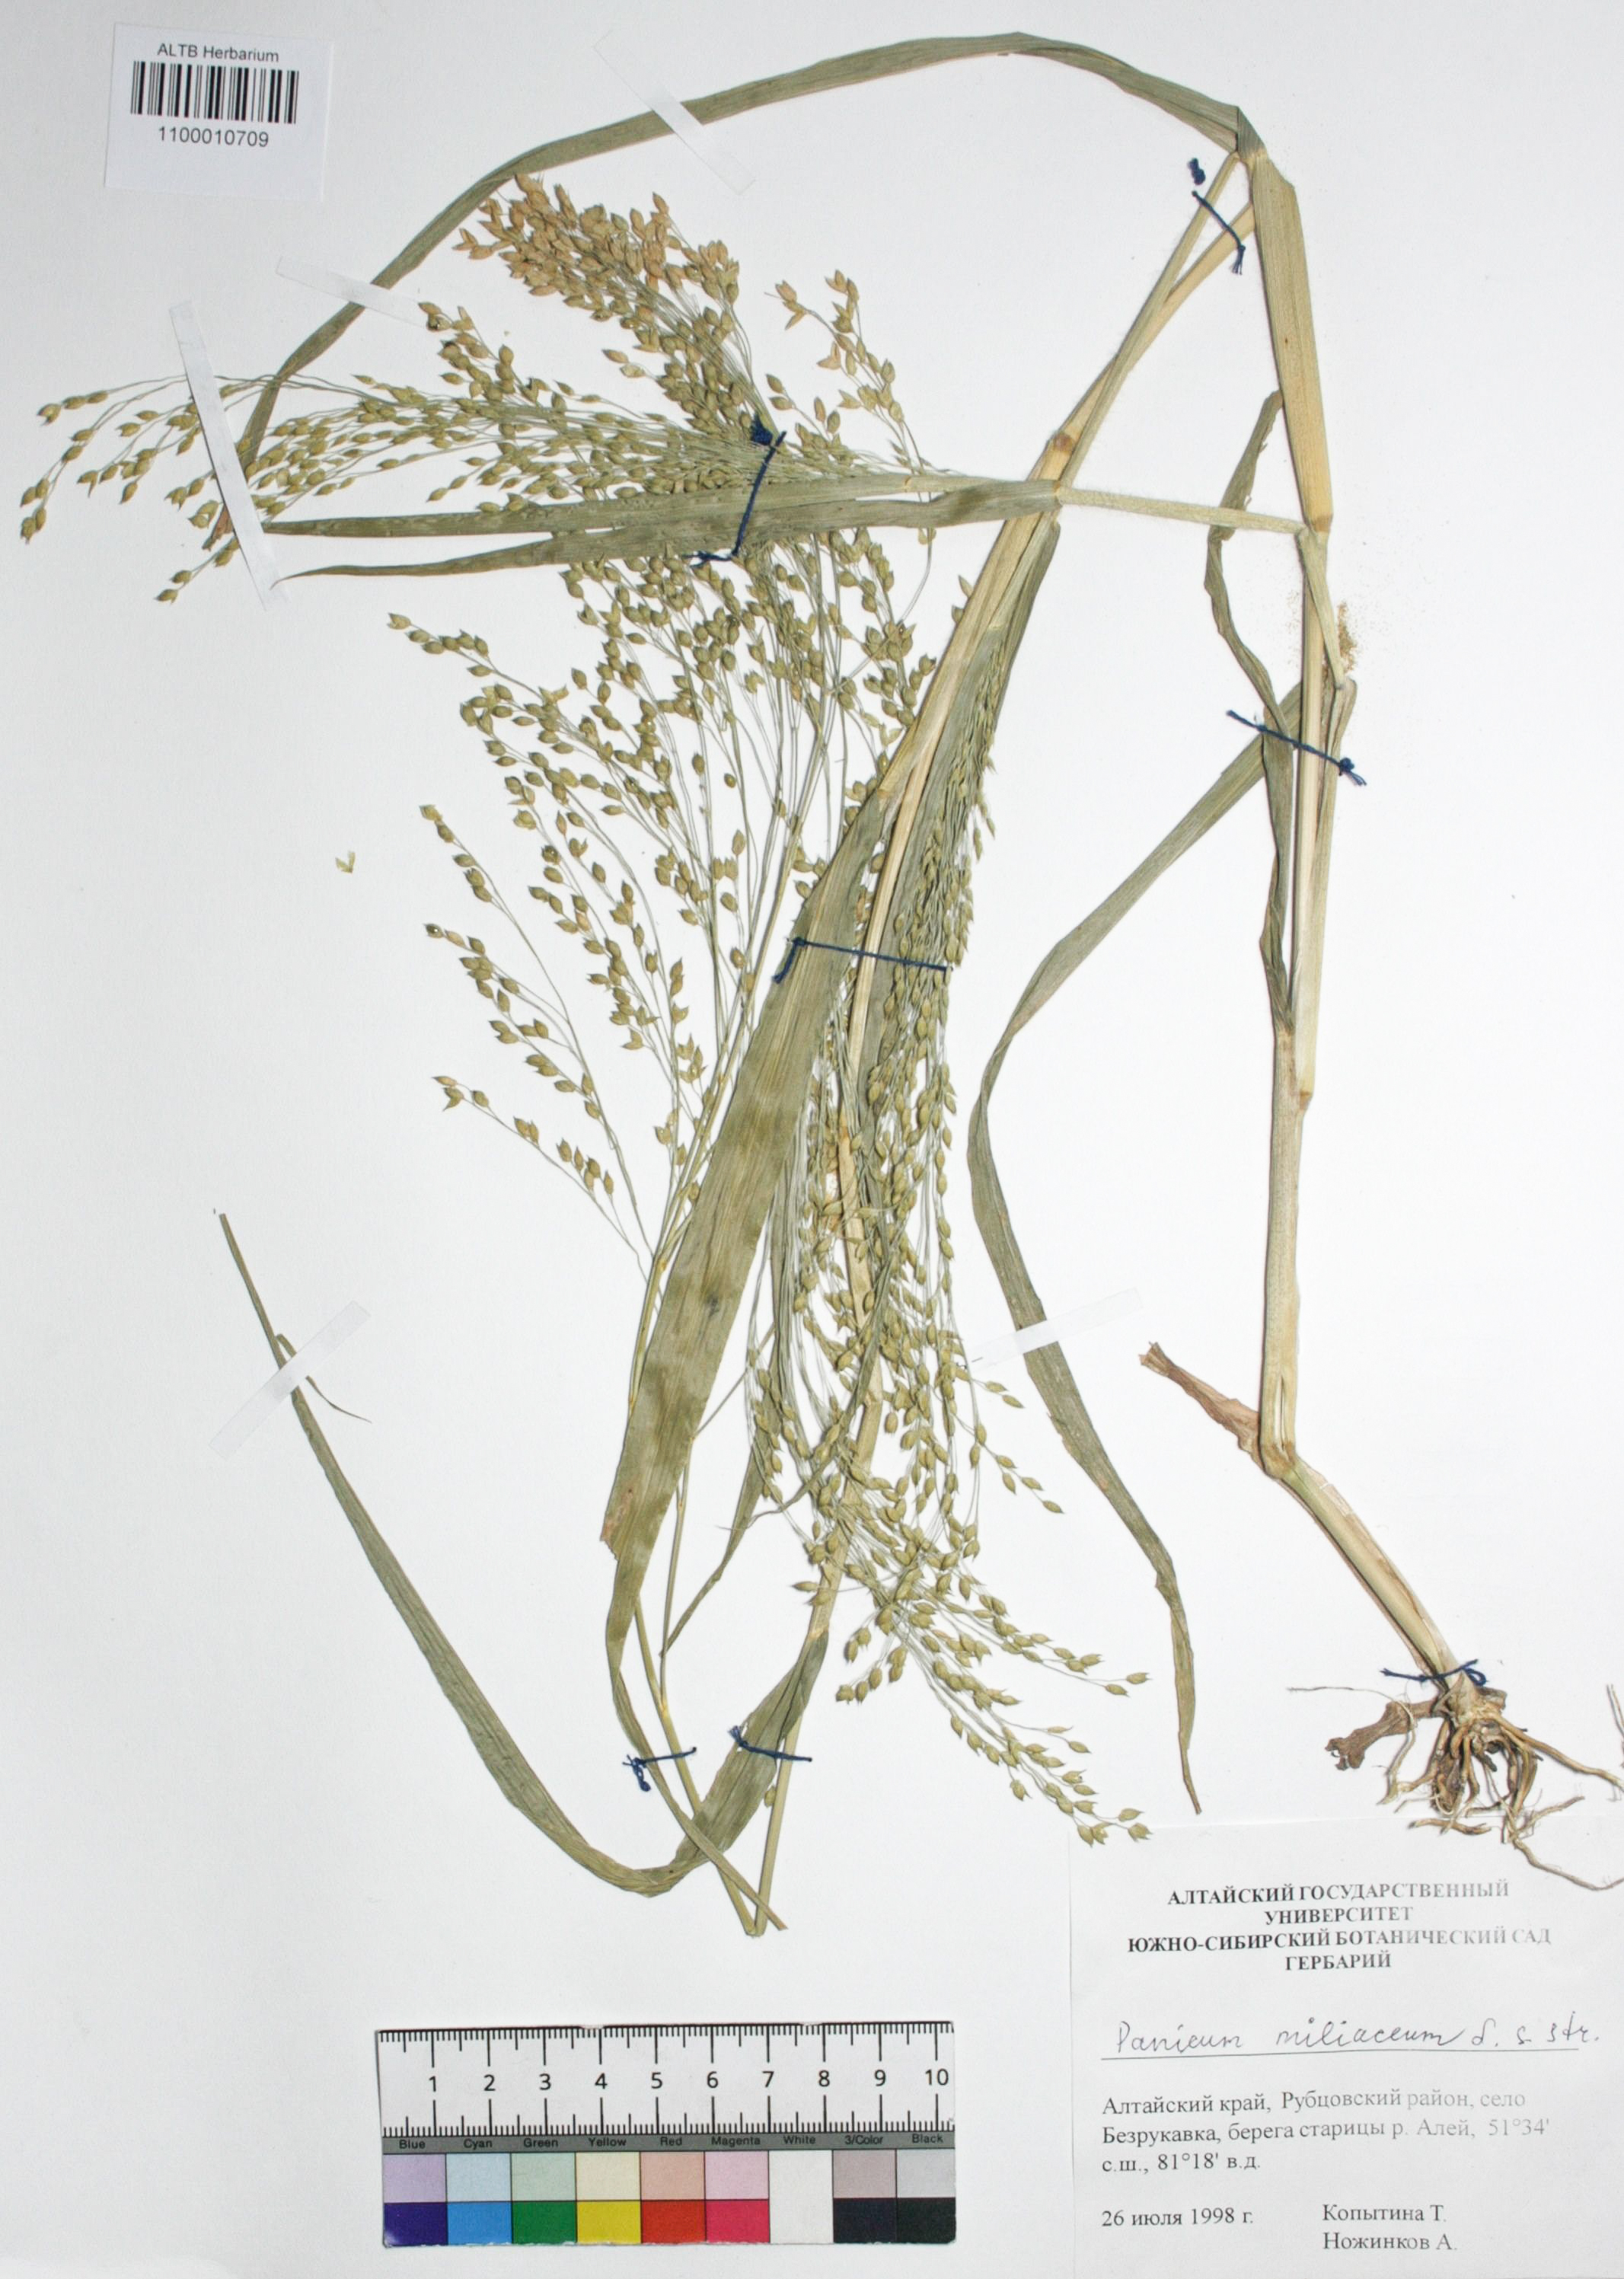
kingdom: Plantae
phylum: Tracheophyta
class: Liliopsida
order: Poales
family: Poaceae
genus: Panicum
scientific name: Panicum miliaceum
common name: Common millet
